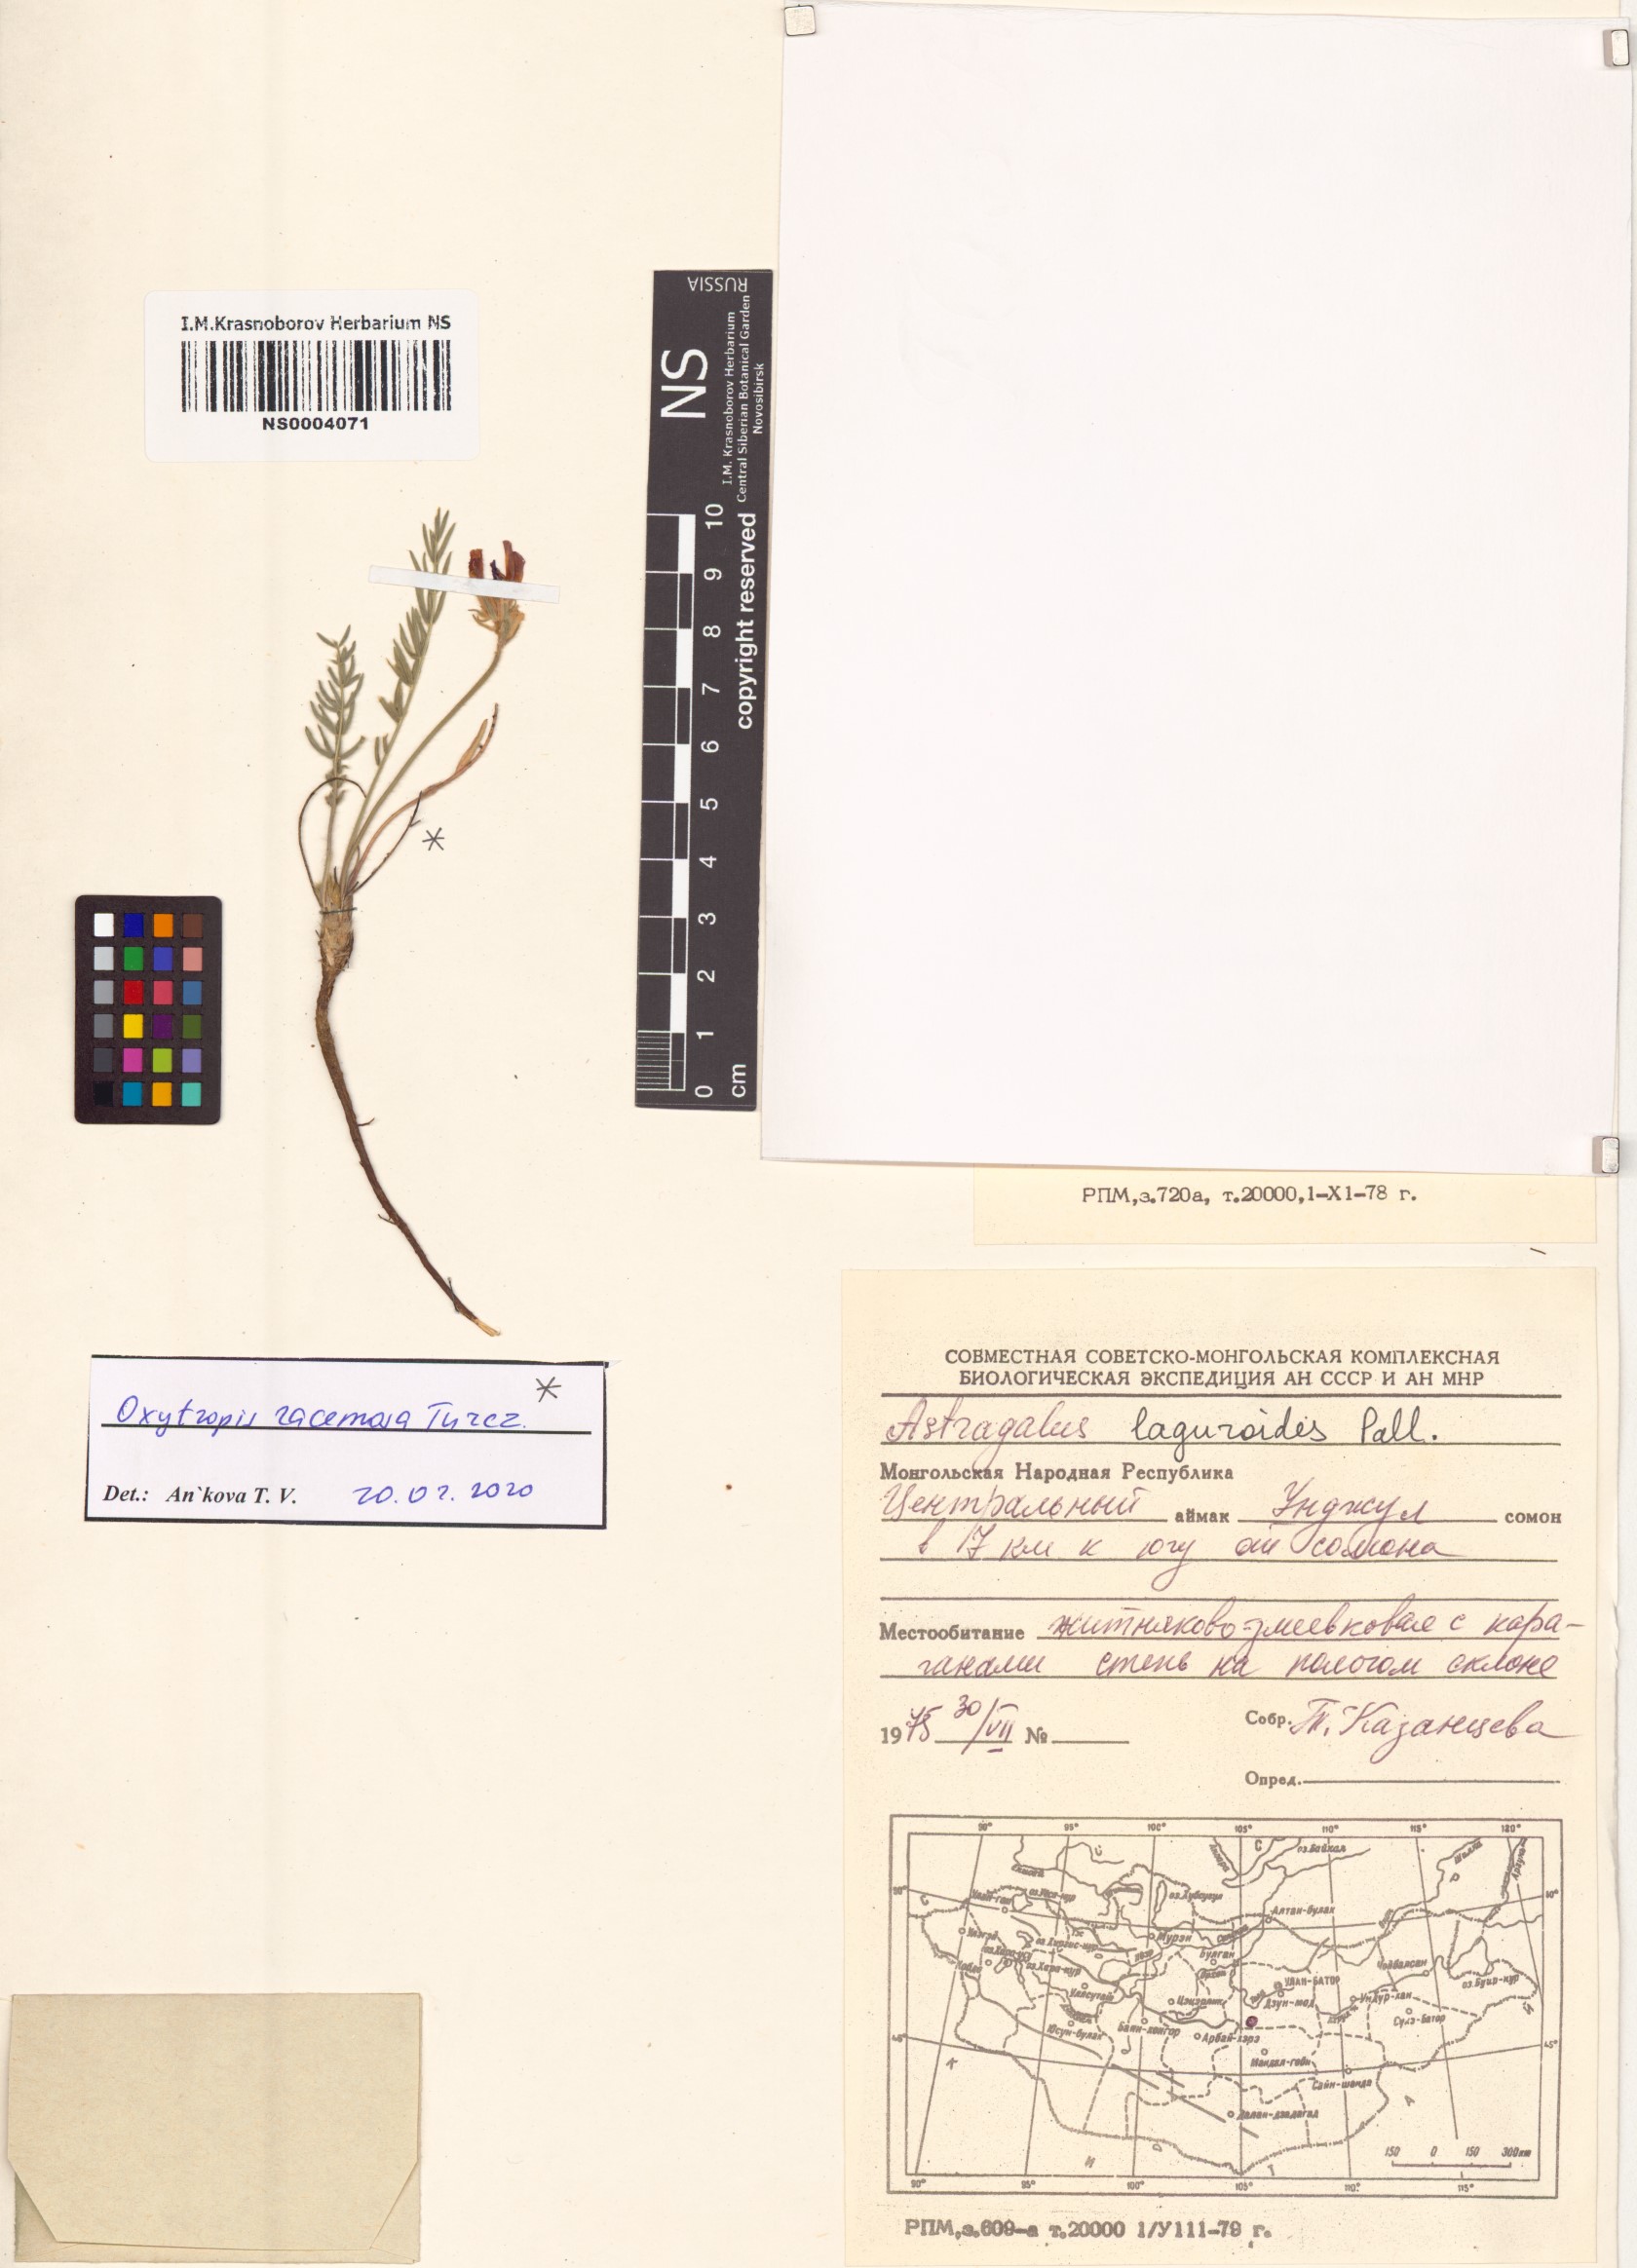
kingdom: Plantae
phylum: Tracheophyta
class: Magnoliopsida
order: Fabales
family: Fabaceae
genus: Oxytropis
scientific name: Oxytropis racemosa
